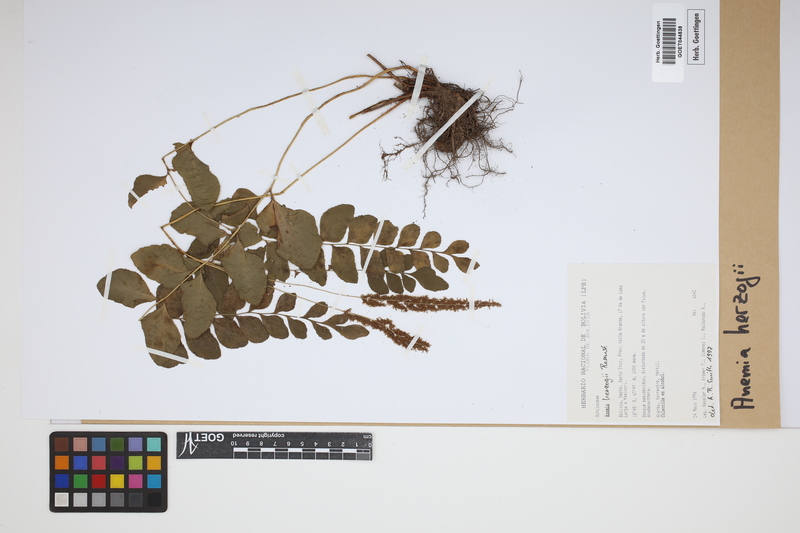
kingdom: Plantae
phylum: Tracheophyta
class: Polypodiopsida
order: Schizaeales
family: Anemiaceae
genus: Anemia
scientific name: Anemia herzogii
